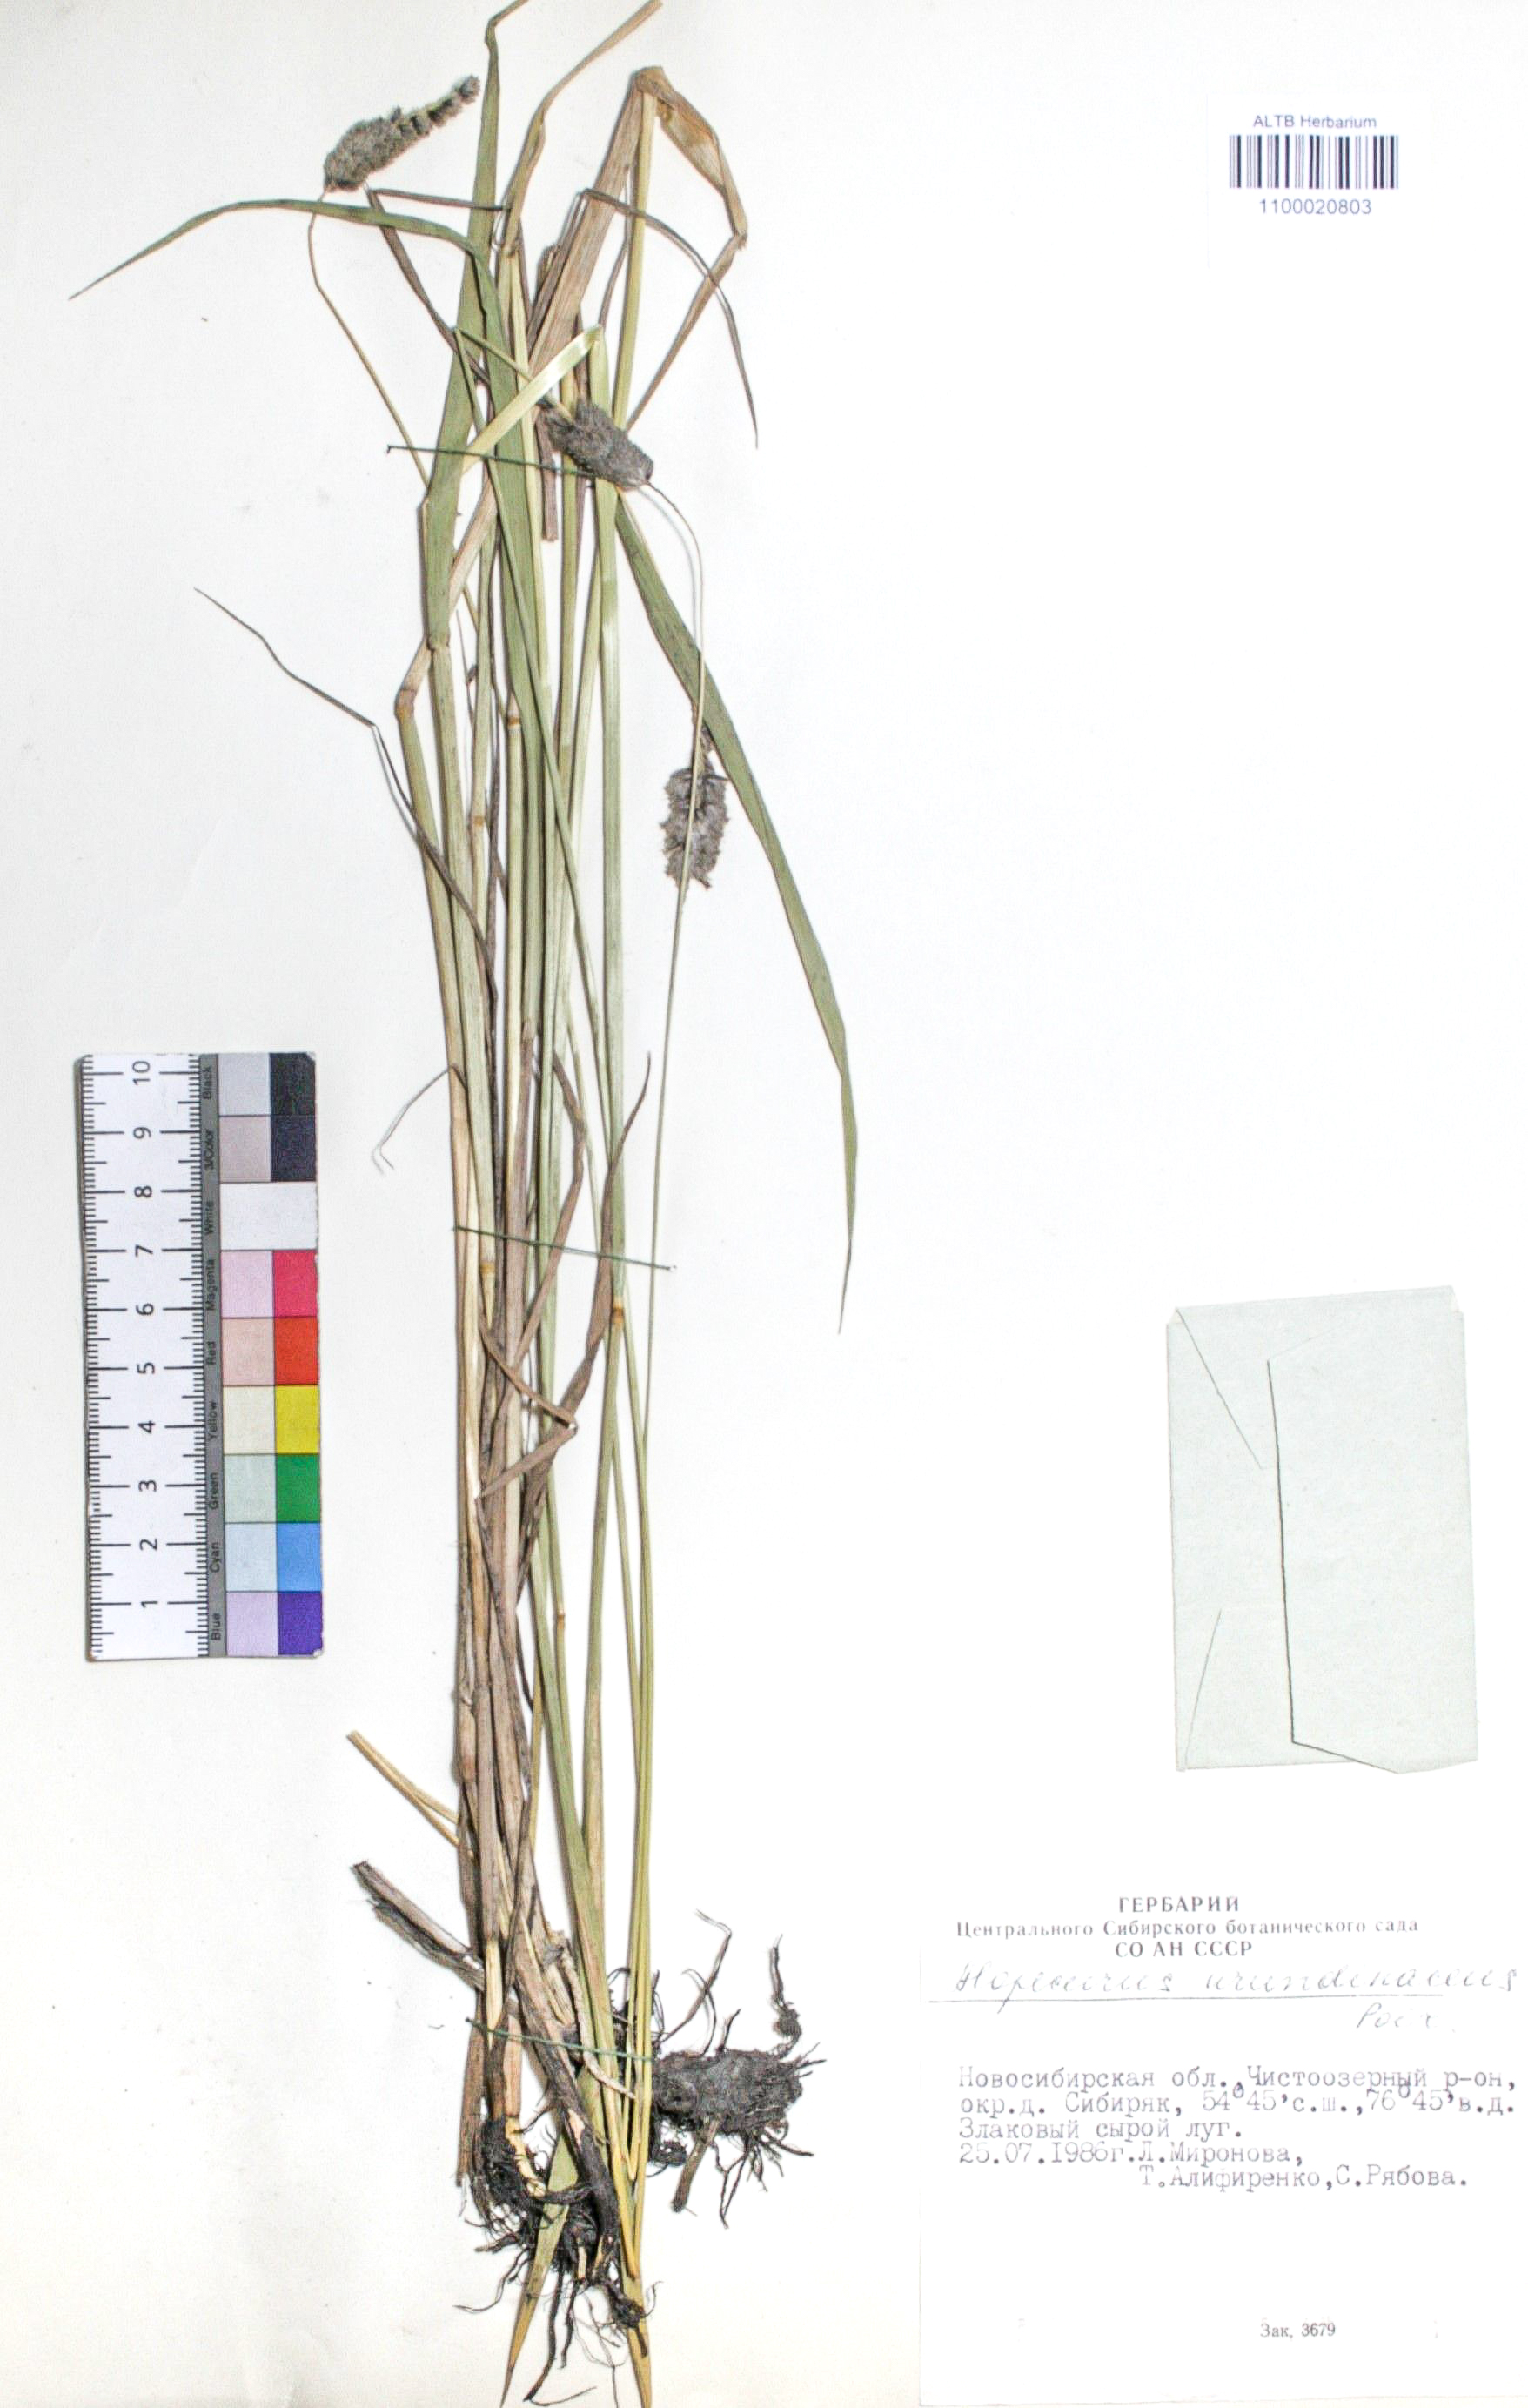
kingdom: Plantae
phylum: Tracheophyta
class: Liliopsida
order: Poales
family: Poaceae
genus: Alopecurus
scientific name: Alopecurus arundinaceus
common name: Creeping meadow foxtail
